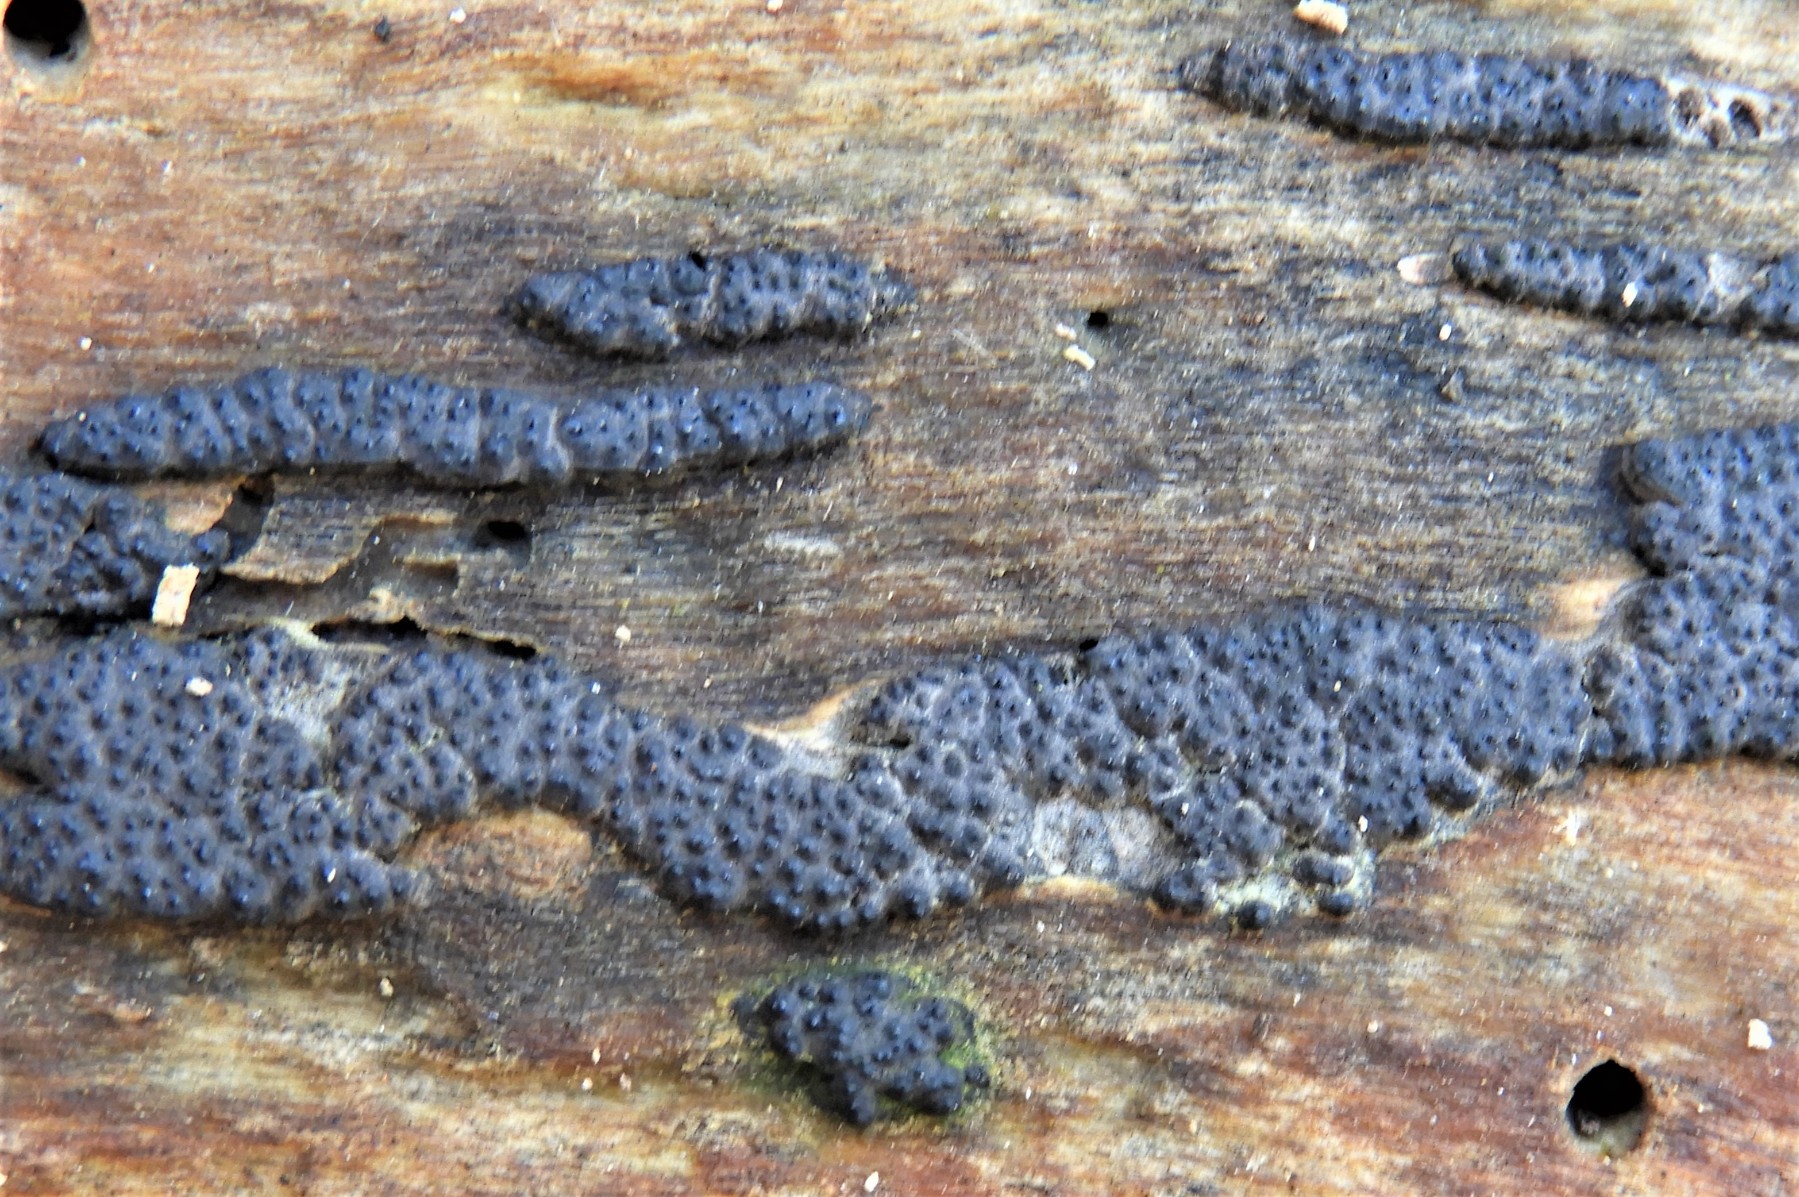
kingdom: Fungi
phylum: Ascomycota
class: Sordariomycetes
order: Xylariales
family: Xylariaceae
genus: Nemania
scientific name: Nemania
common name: kuldyne
